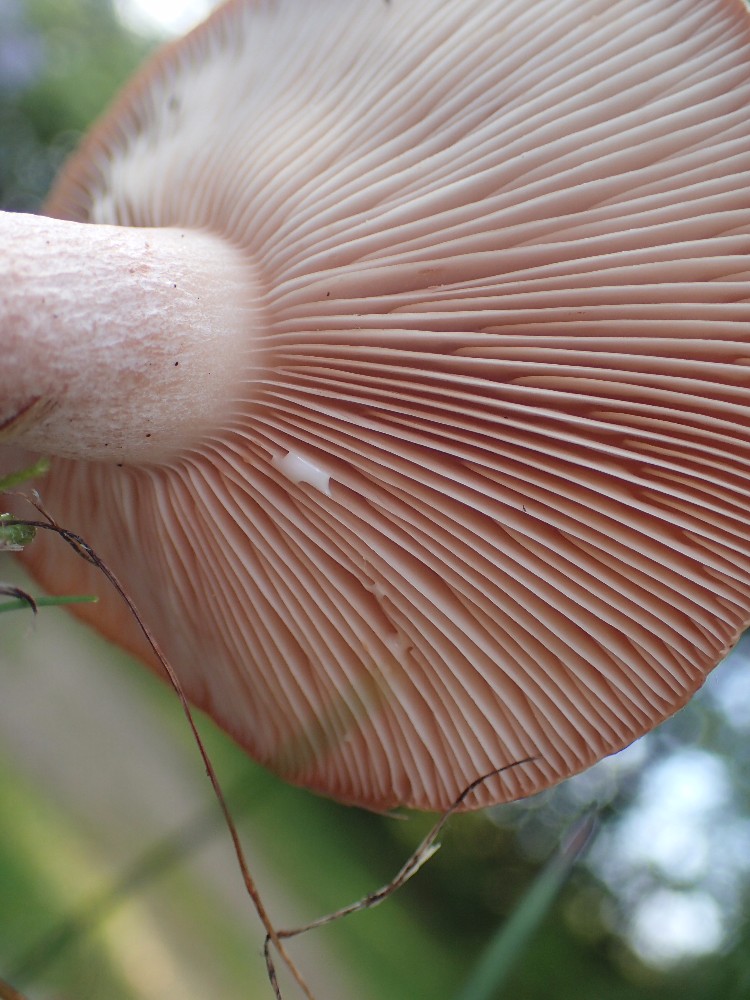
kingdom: Fungi
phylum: Basidiomycota
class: Agaricomycetes
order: Russulales
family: Russulaceae
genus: Lactarius
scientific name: Lactarius quietus
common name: ege-mælkehat
